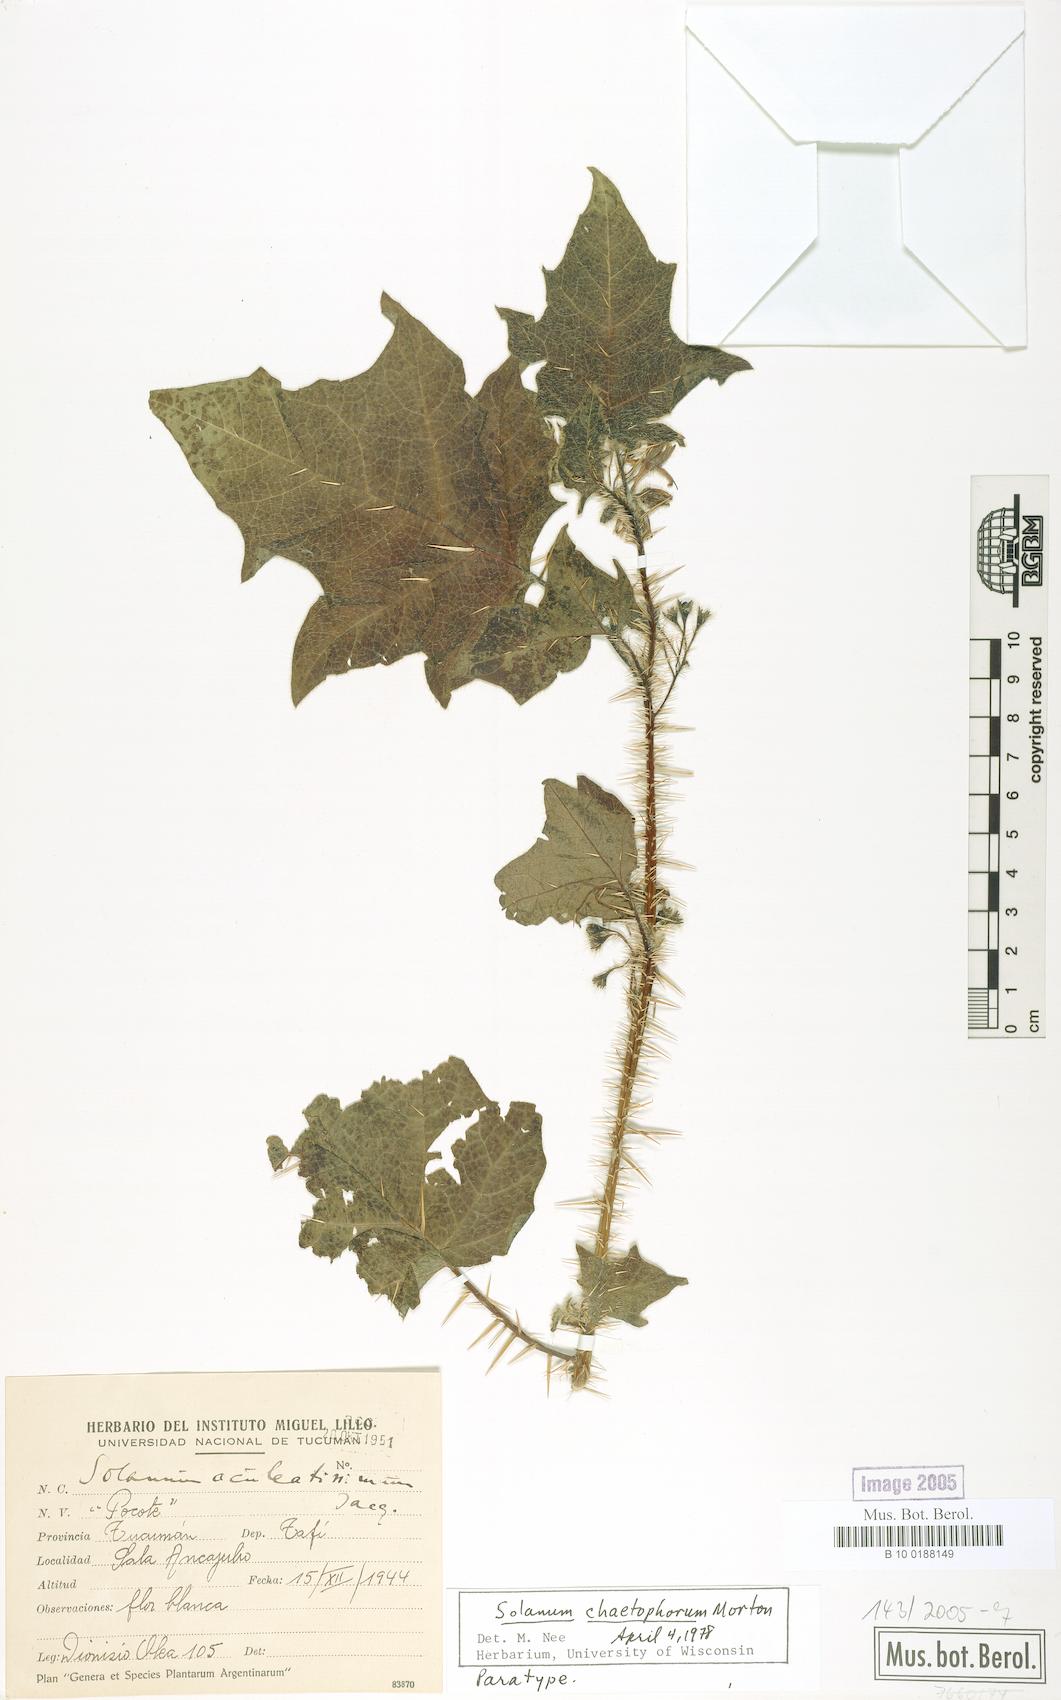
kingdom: Plantae
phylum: Tracheophyta
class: Magnoliopsida
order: Solanales
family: Solanaceae
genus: Solanum
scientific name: Solanum tenuispinum
